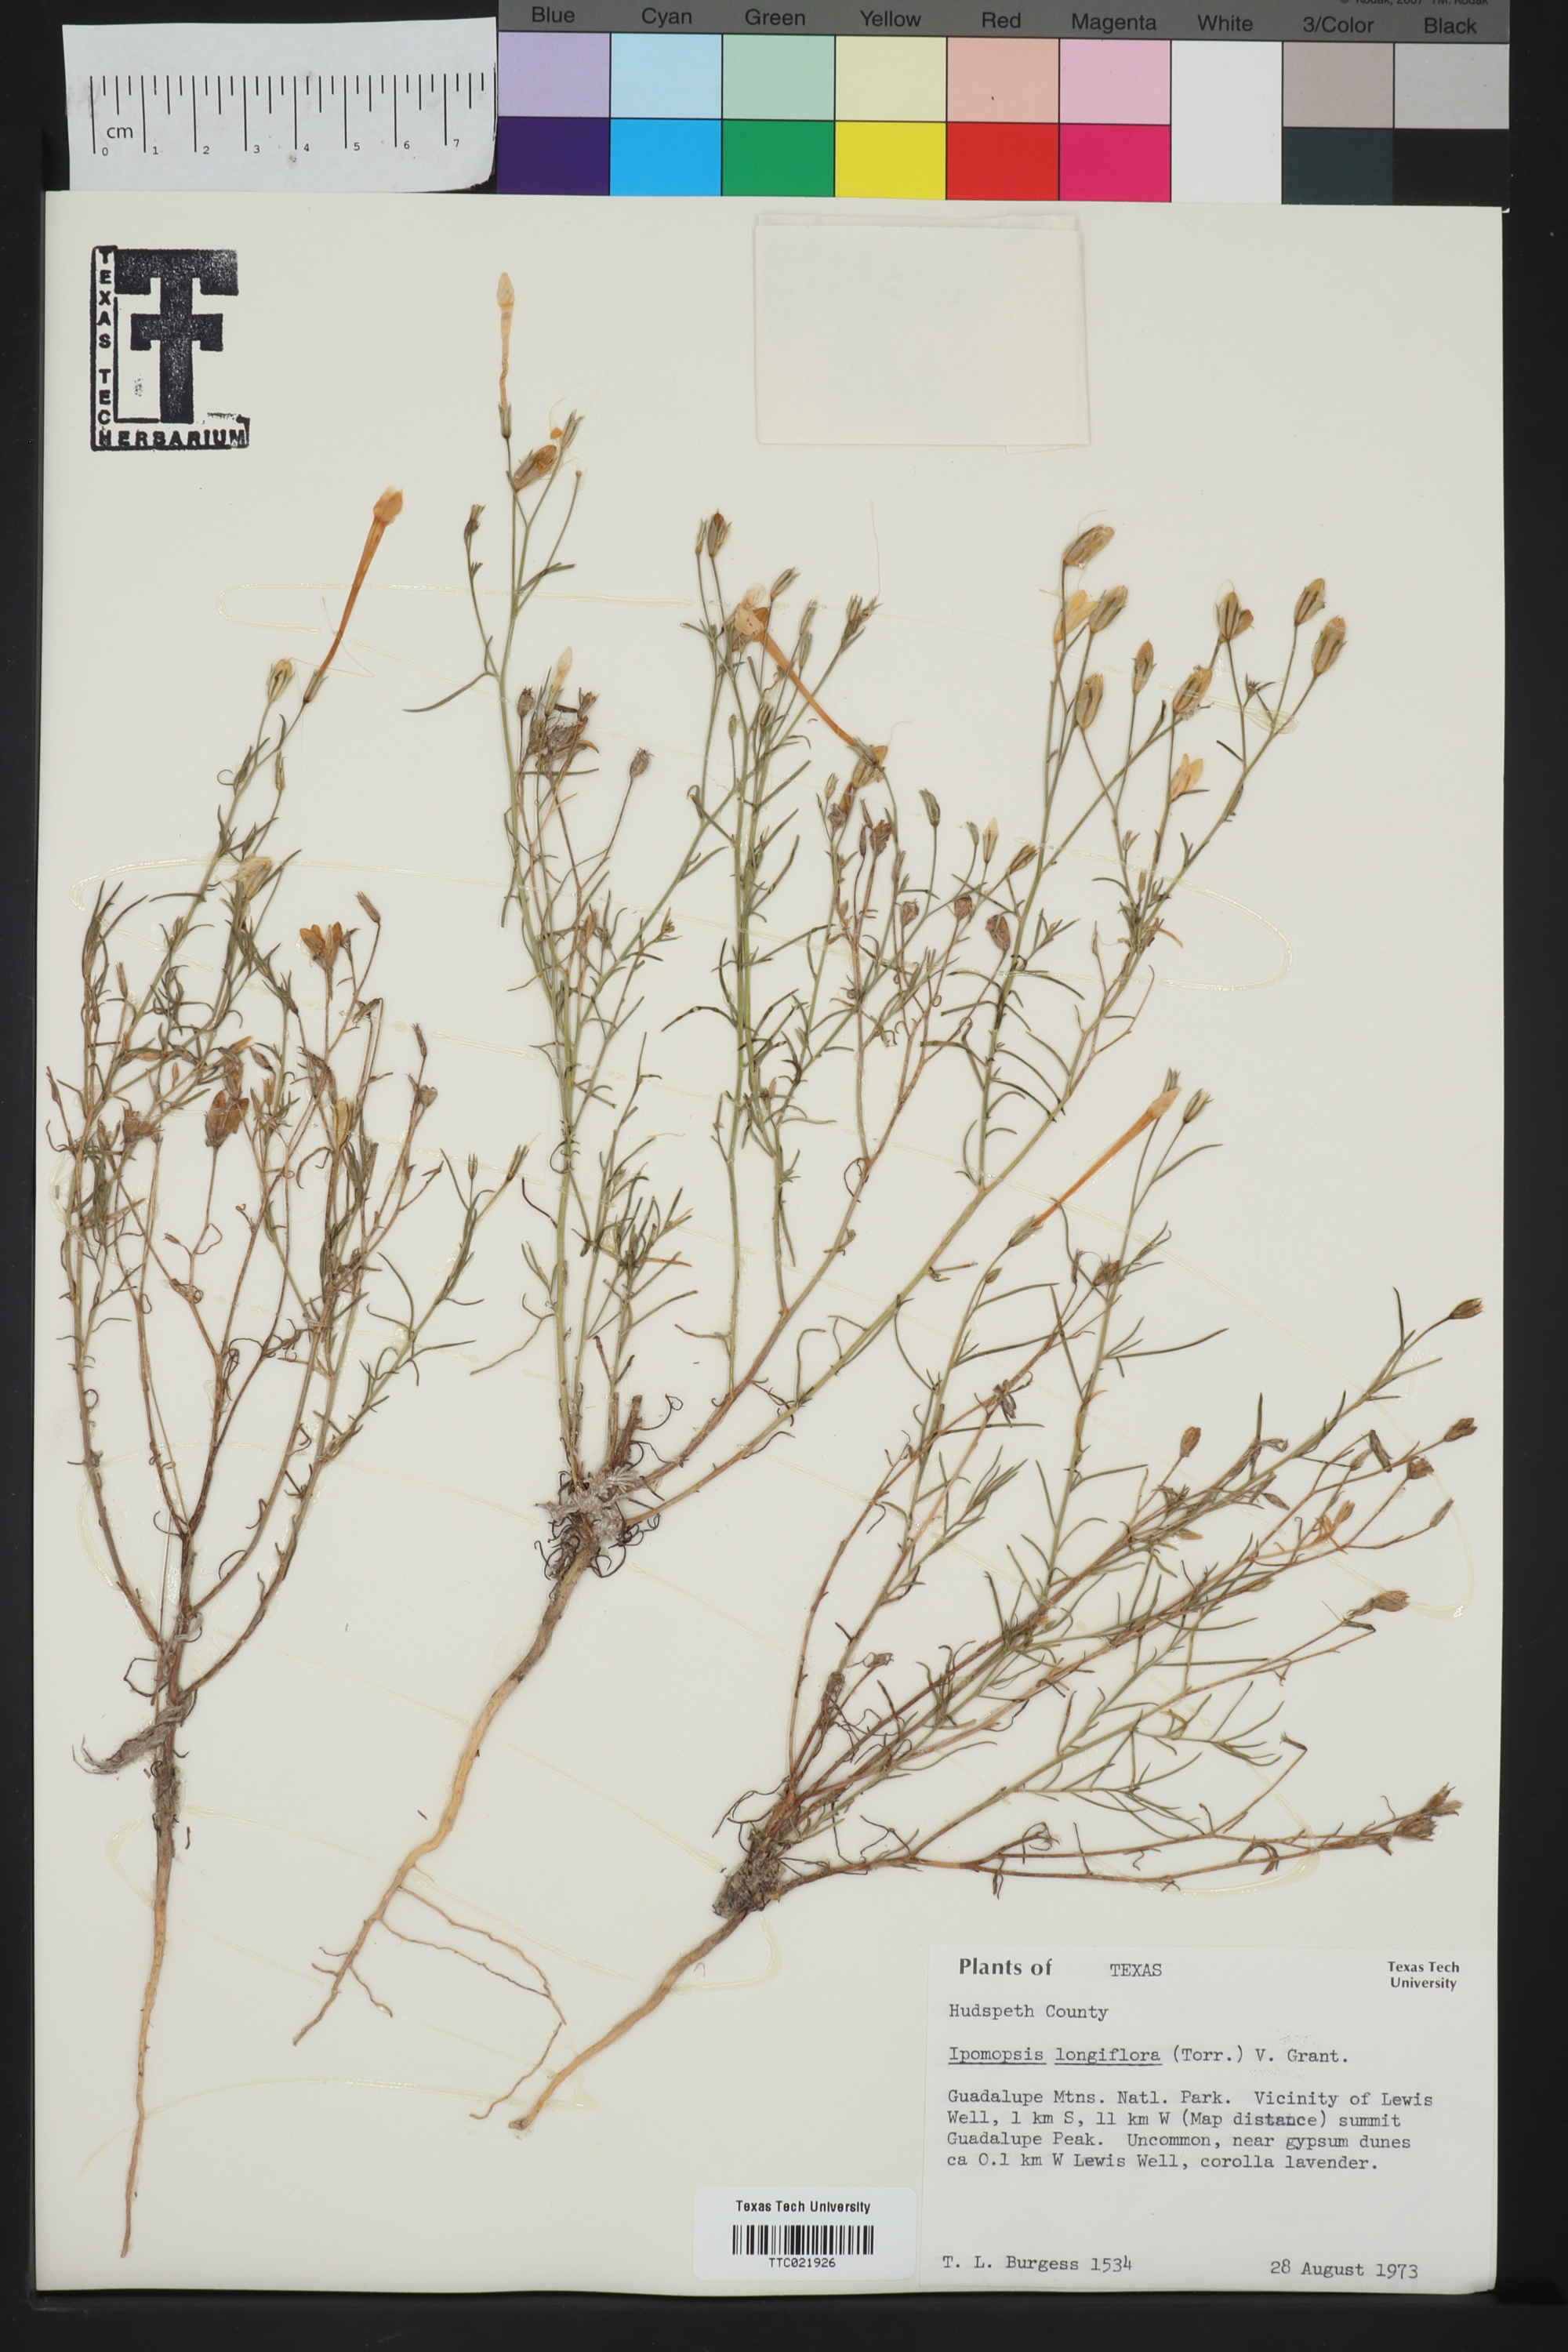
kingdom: Plantae
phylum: Tracheophyta
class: Magnoliopsida
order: Ericales
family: Polemoniaceae
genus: Ipomopsis
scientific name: Ipomopsis longiflora
